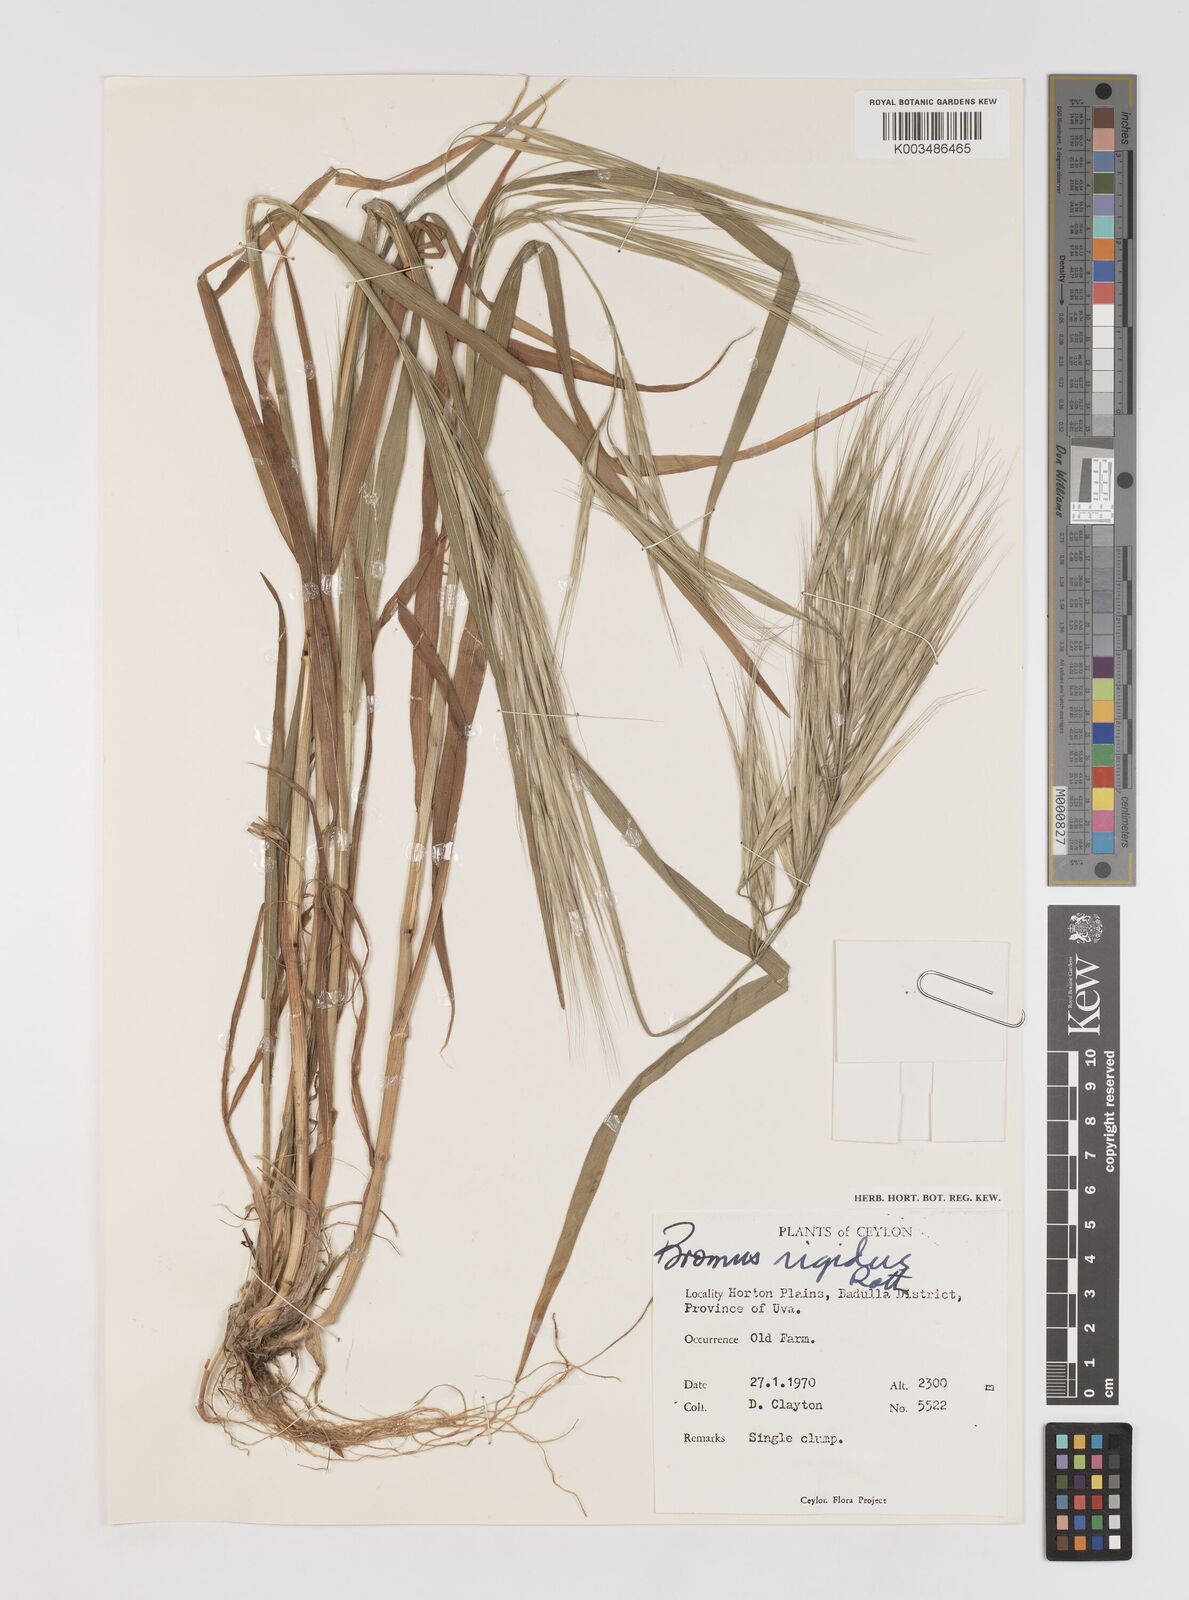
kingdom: Plantae
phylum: Tracheophyta
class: Liliopsida
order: Poales
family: Poaceae
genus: Bromus
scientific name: Bromus diandrus
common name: Ripgut brome
